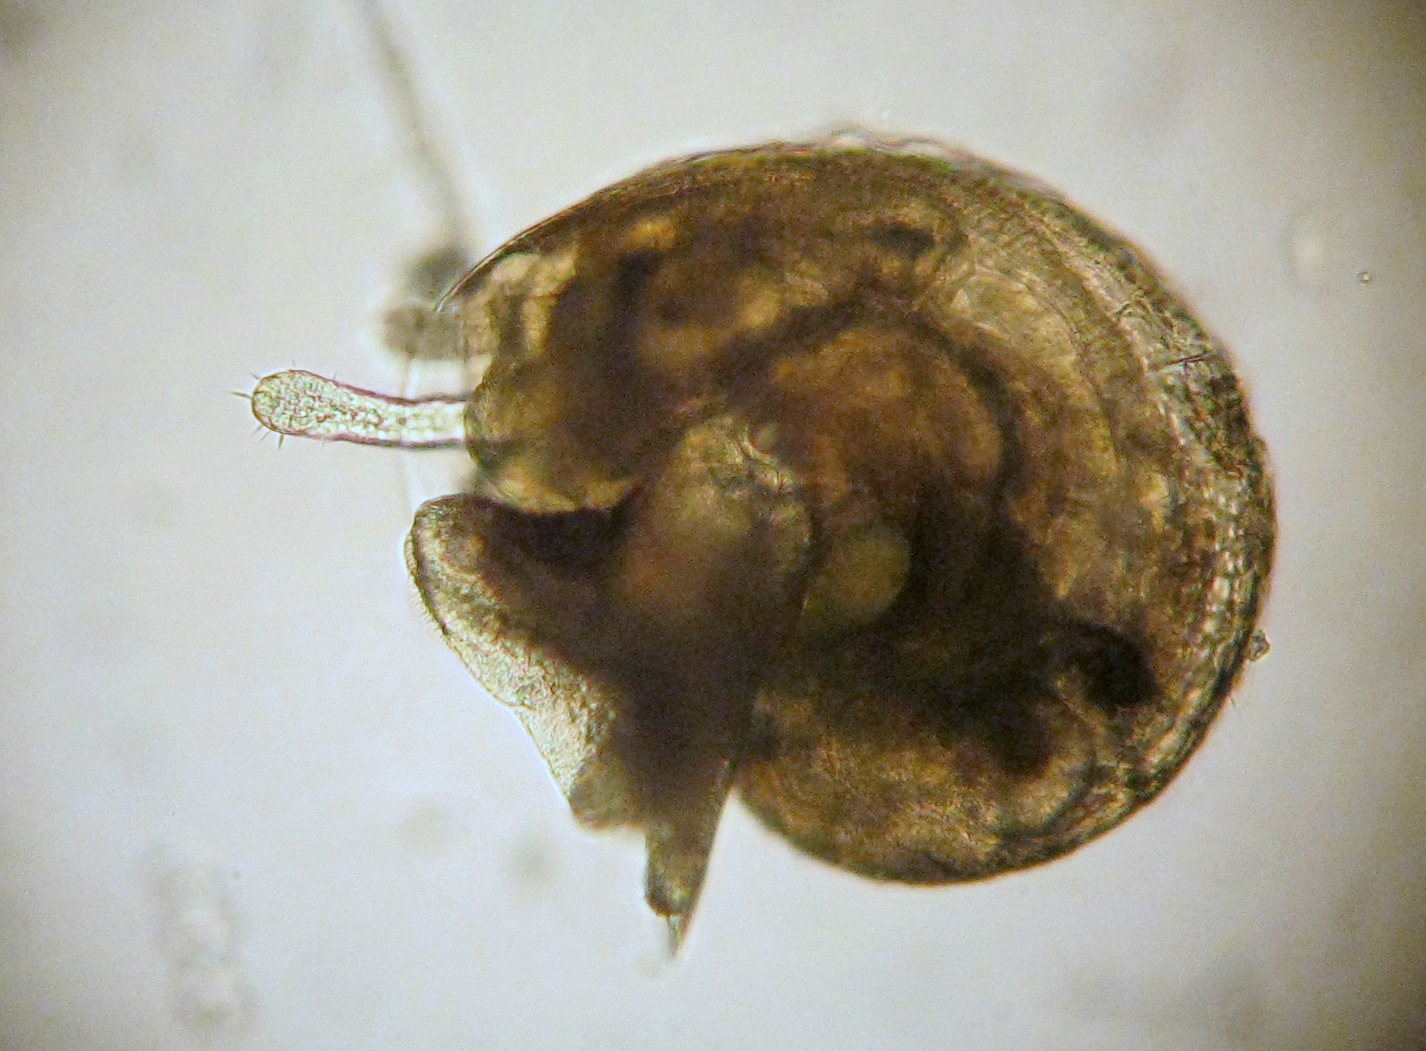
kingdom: Animalia
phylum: Mollusca
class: Gastropoda
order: Littorinimorpha
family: Littorinidae
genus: Littorina
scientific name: Littorina
